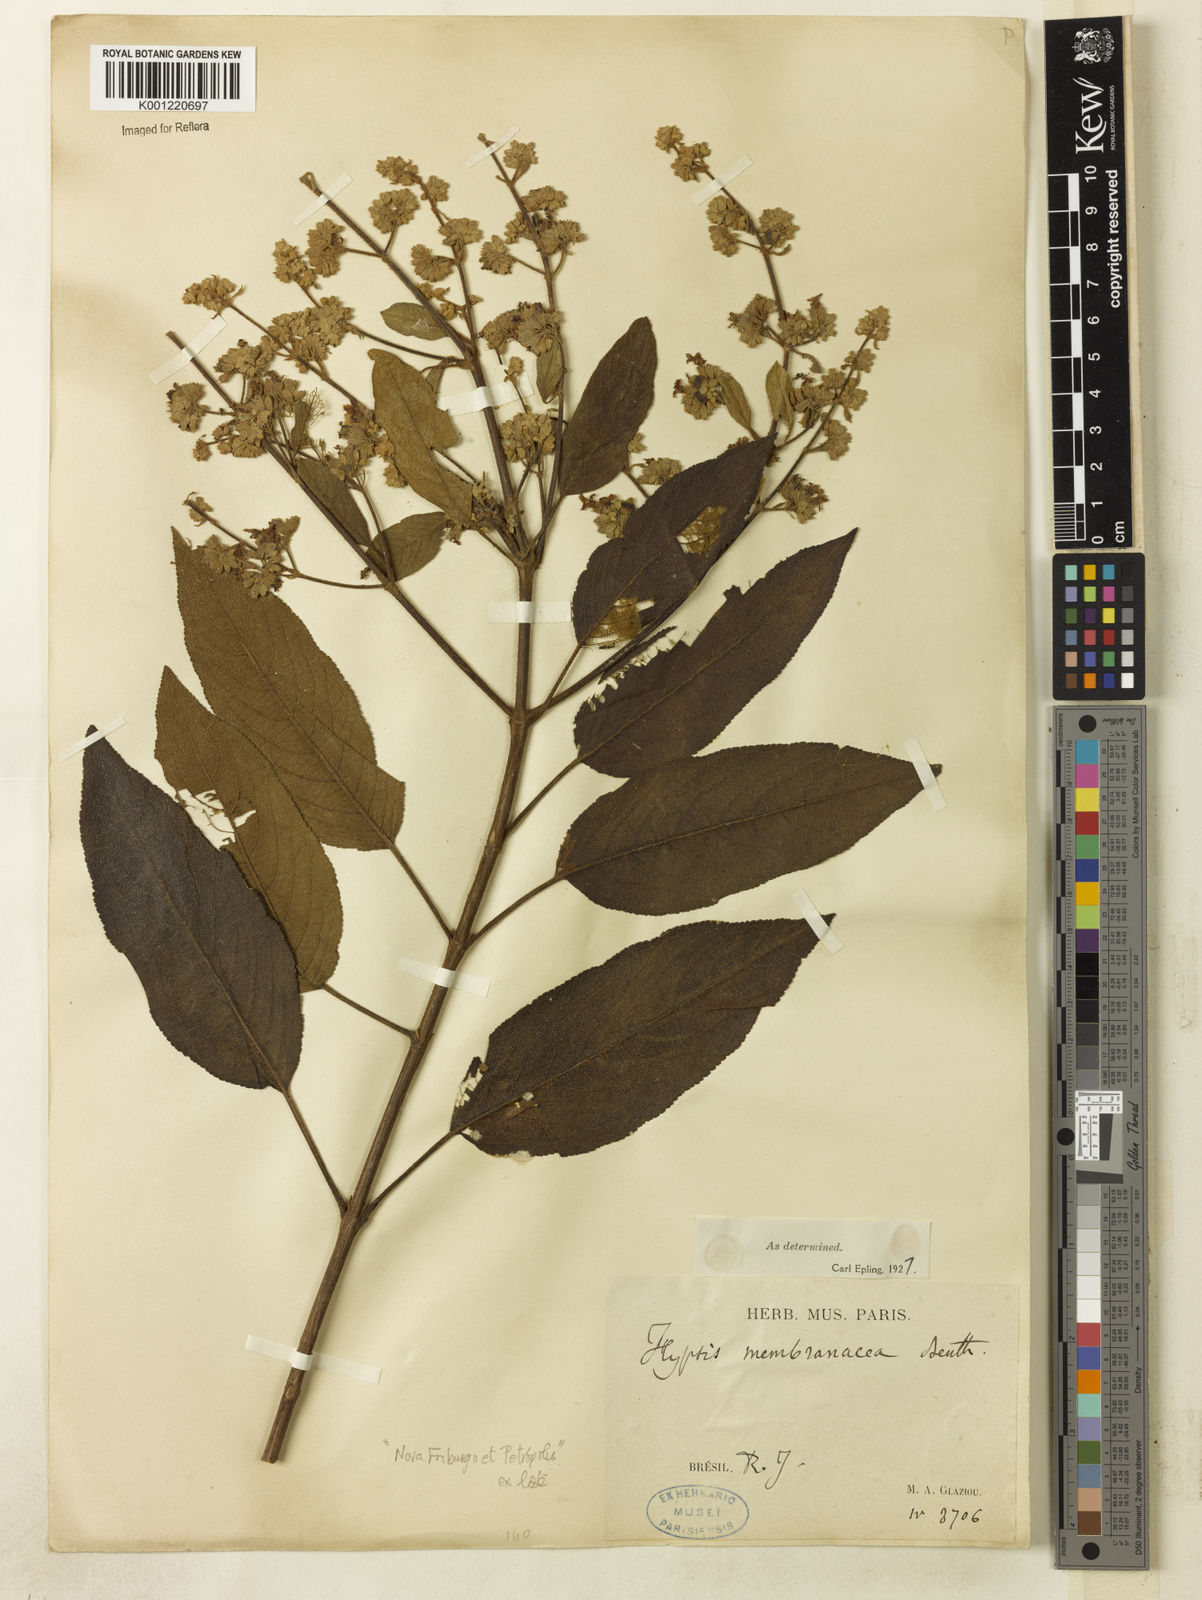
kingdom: Plantae
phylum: Tracheophyta
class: Magnoliopsida
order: Lamiales
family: Lamiaceae
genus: Hyptidendron
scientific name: Hyptidendron asperrimum
